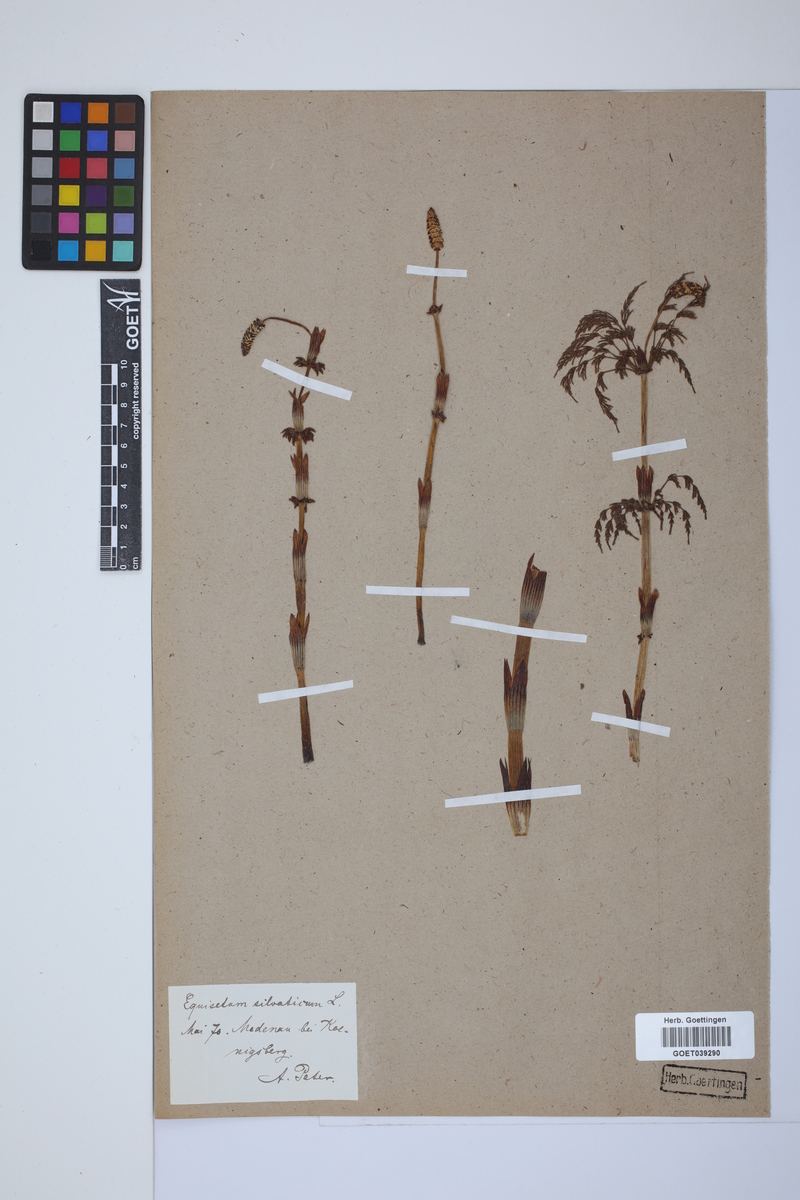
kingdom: Plantae
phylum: Tracheophyta
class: Polypodiopsida
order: Equisetales
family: Equisetaceae
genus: Equisetum
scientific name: Equisetum sylvaticum
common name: Wood horsetail
